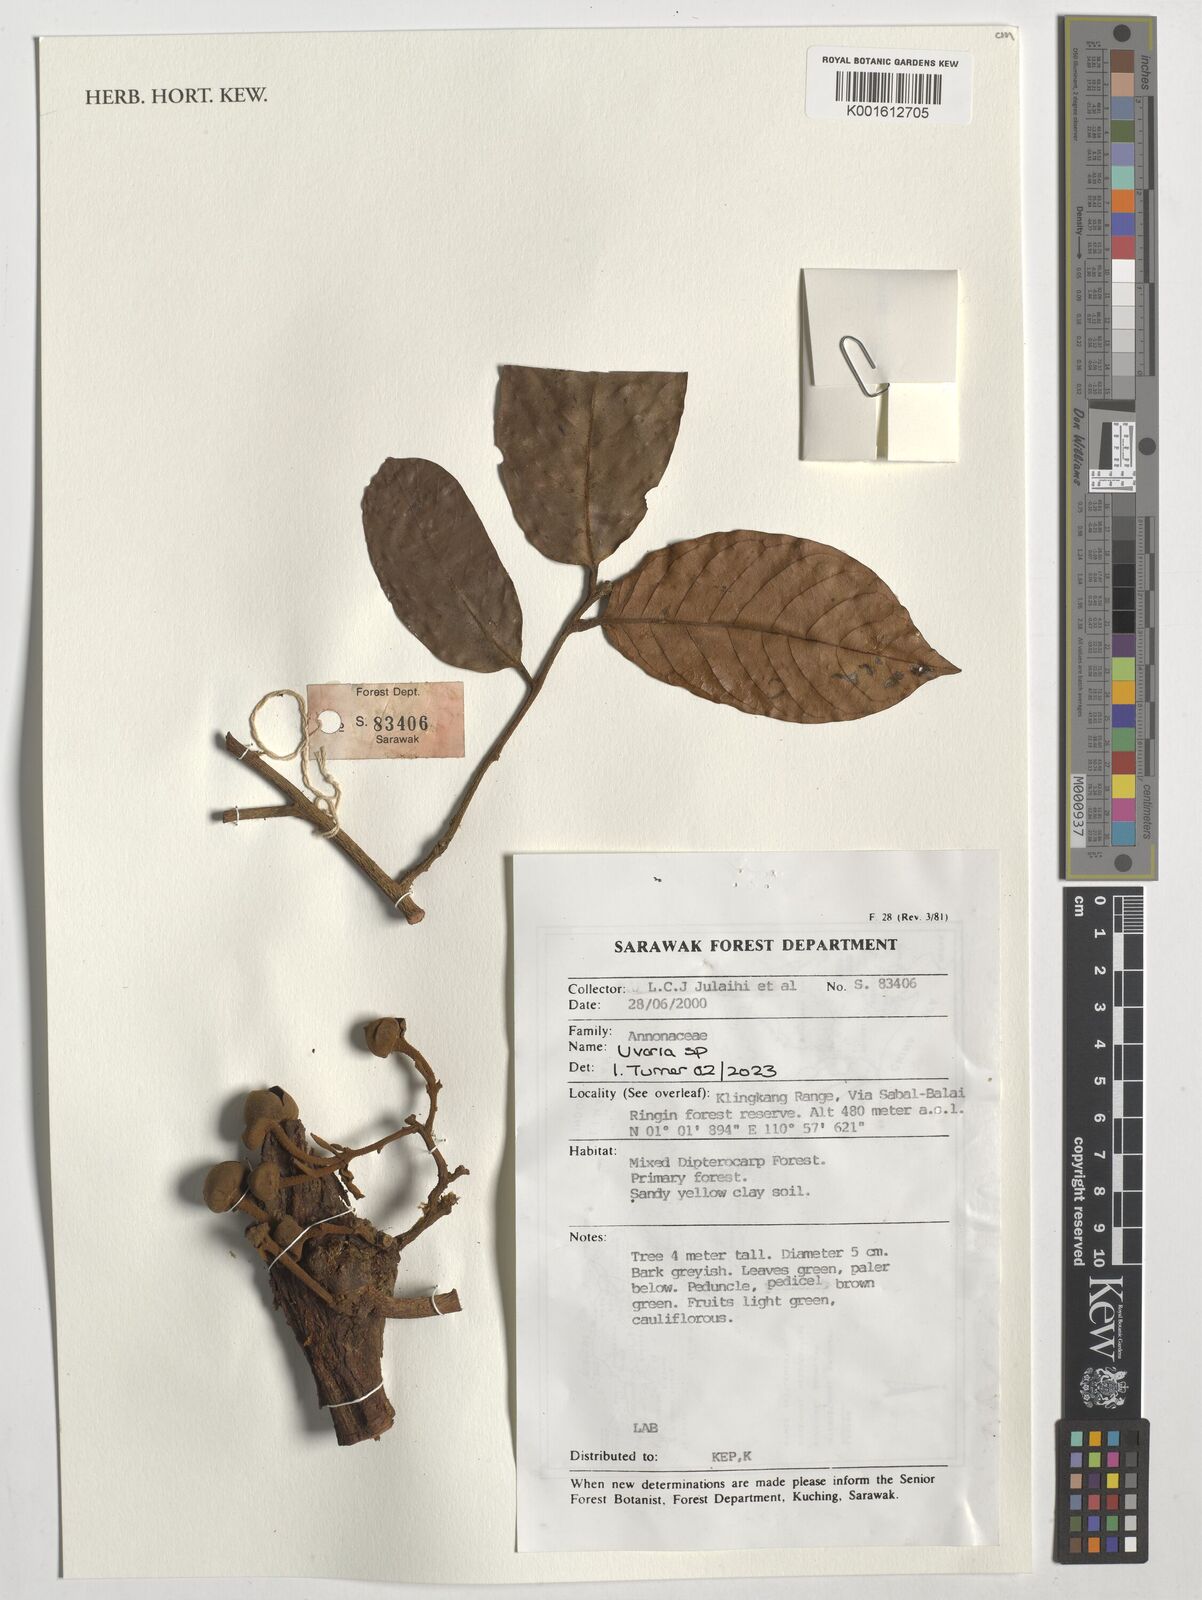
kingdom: Plantae
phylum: Tracheophyta
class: Magnoliopsida
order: Magnoliales
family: Annonaceae
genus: Uvaria
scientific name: Uvaria
